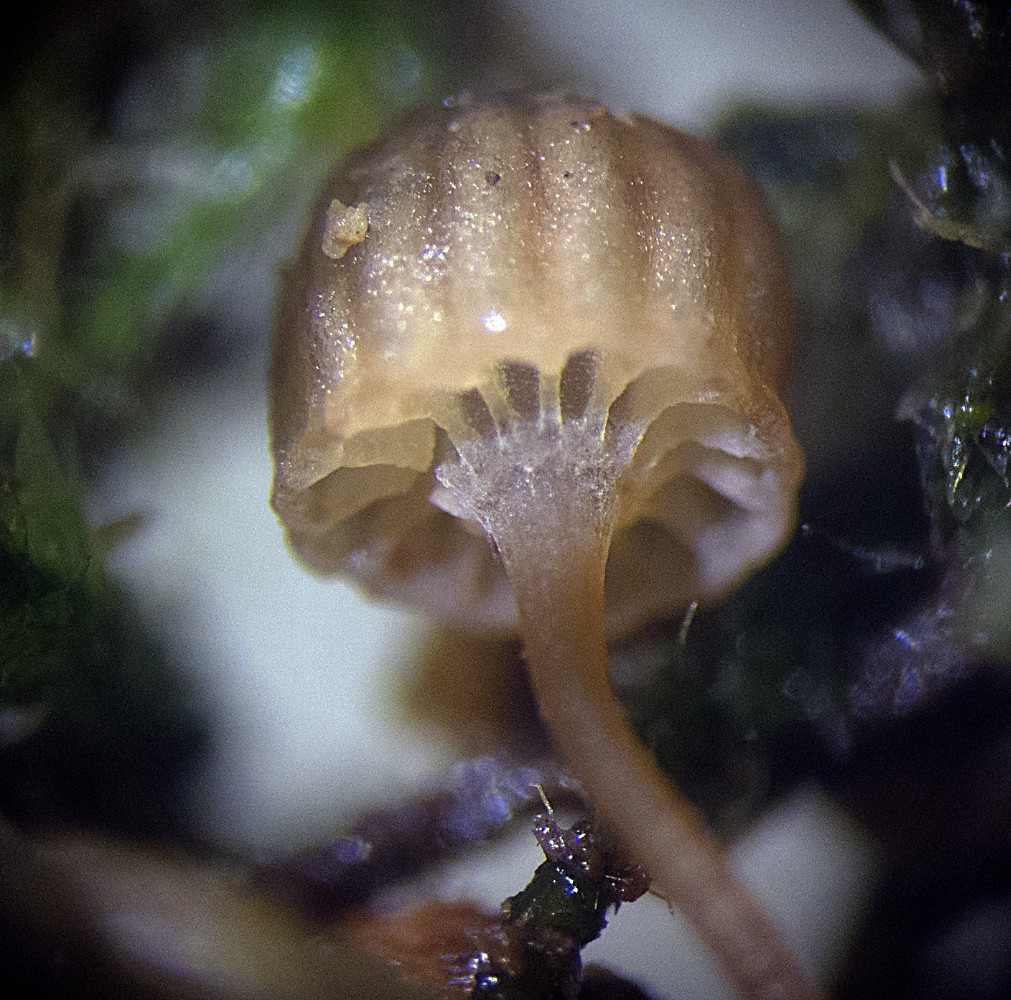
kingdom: Fungi
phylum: Basidiomycota
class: Agaricomycetes
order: Agaricales
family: Mycenaceae
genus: Mycena
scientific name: Mycena picta
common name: kantet huesvamp
